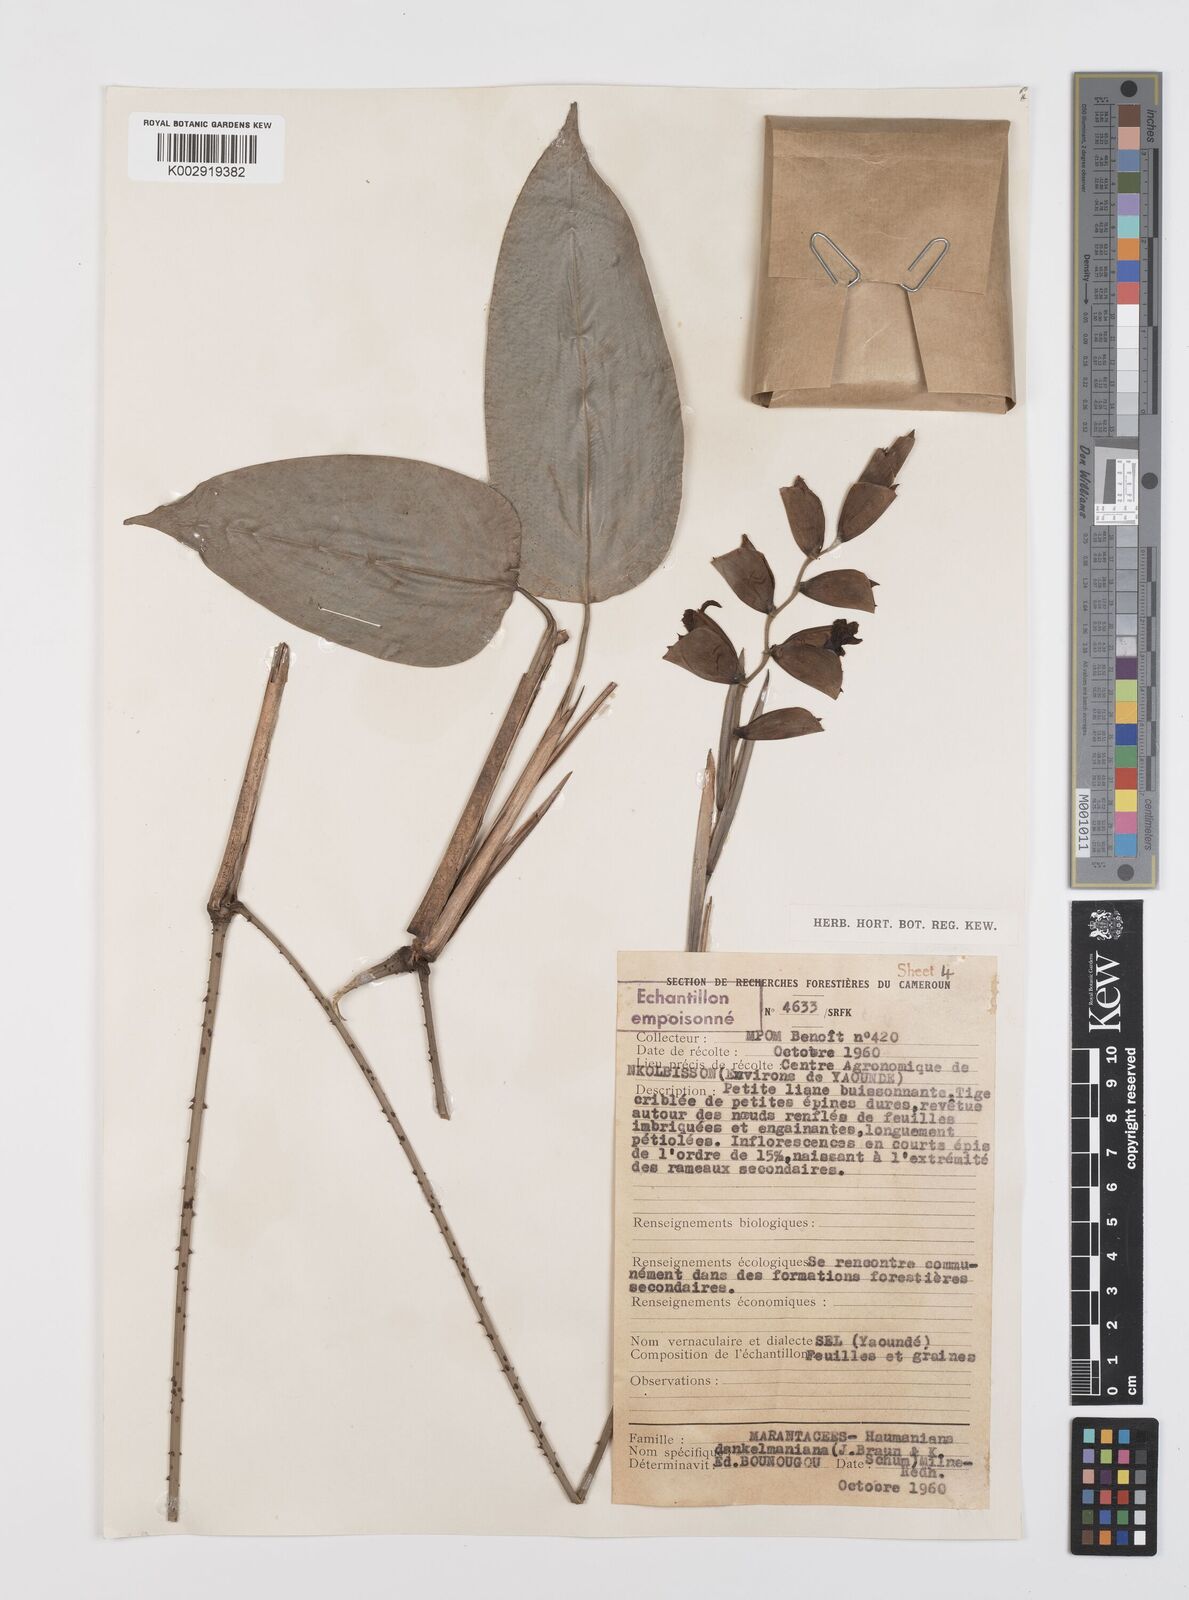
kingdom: Plantae
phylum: Tracheophyta
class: Liliopsida
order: Zingiberales
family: Marantaceae
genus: Haumania
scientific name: Haumania danckelmaniana
